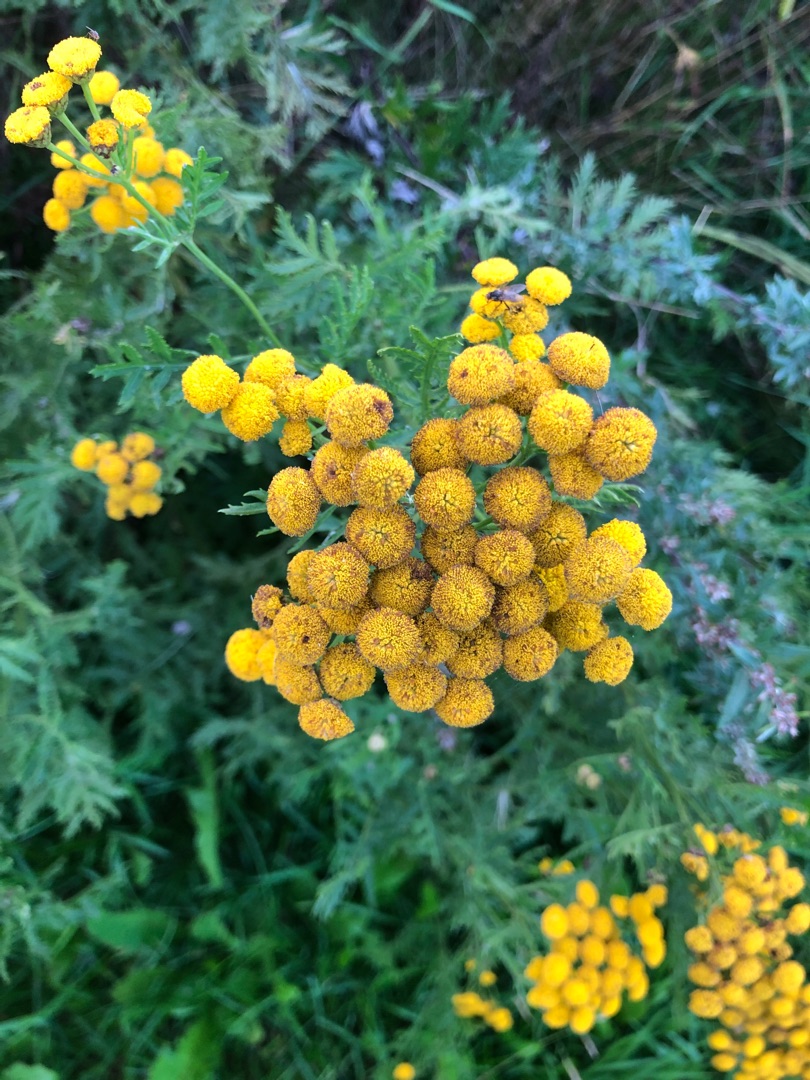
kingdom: Plantae
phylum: Tracheophyta
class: Magnoliopsida
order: Asterales
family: Asteraceae
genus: Tanacetum
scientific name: Tanacetum vulgare
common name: Rejnfan
